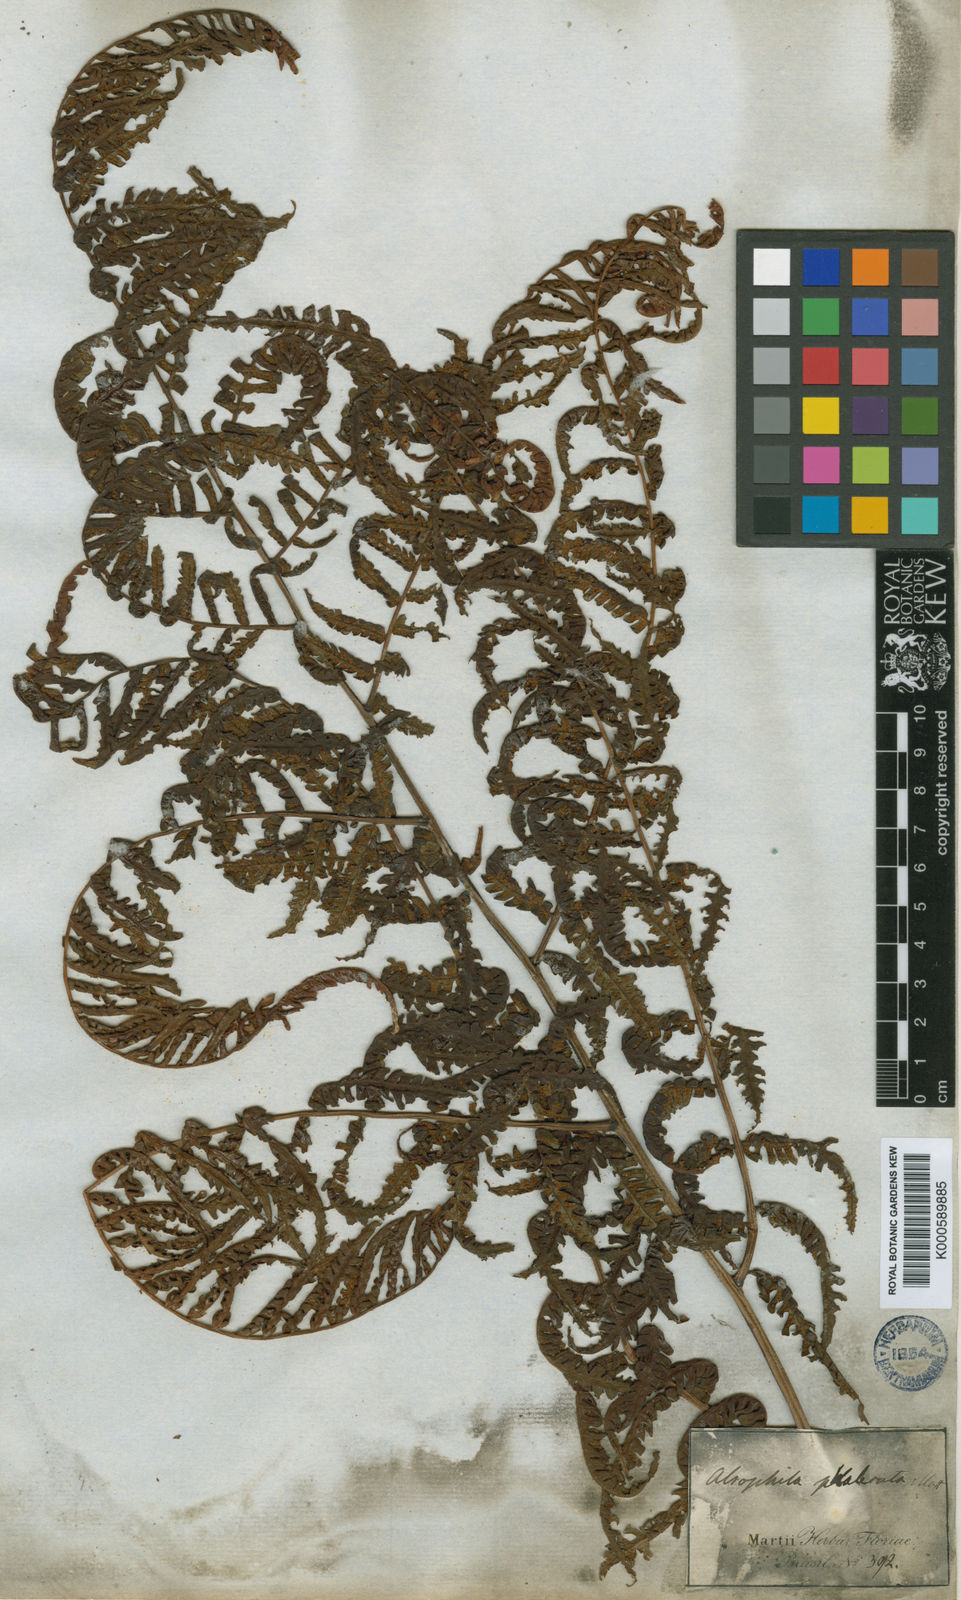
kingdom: Plantae
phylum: Tracheophyta
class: Polypodiopsida
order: Cyatheales
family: Cyatheaceae
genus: Cyathea
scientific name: Cyathea phalerata
